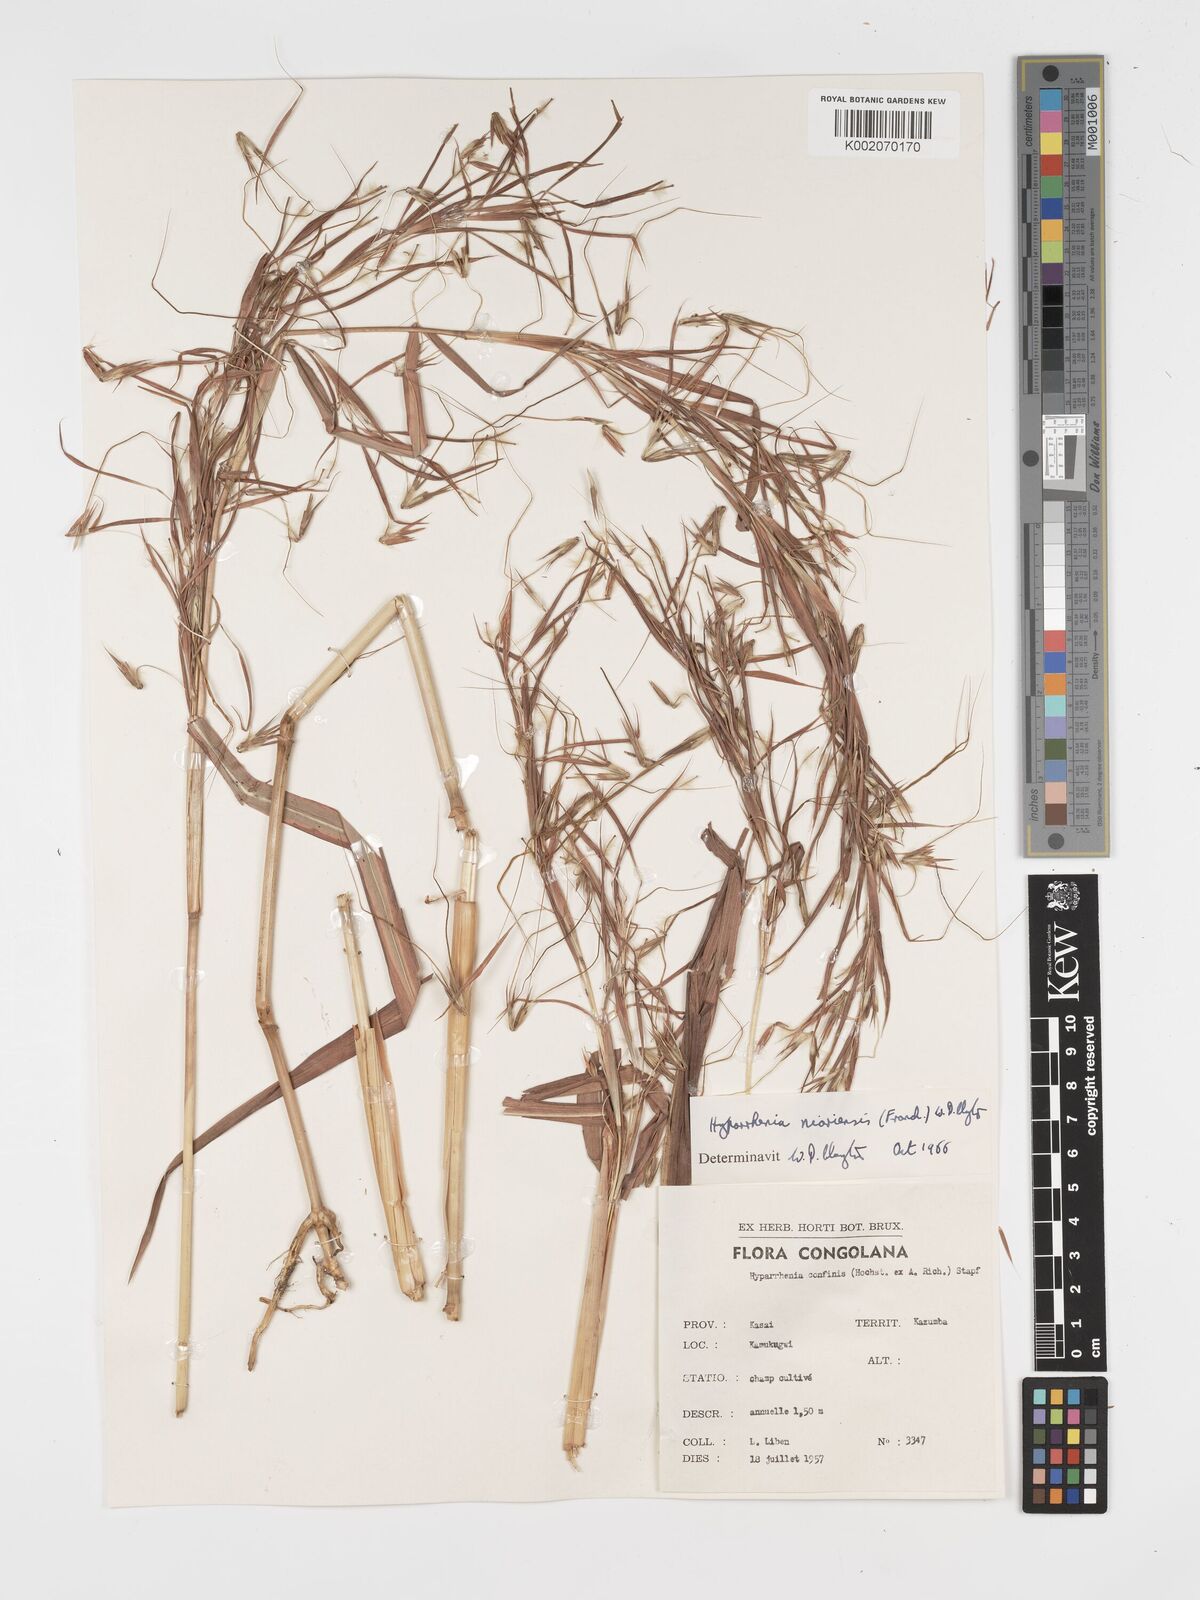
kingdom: Plantae
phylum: Tracheophyta
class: Liliopsida
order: Poales
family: Poaceae
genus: Hyparrhenia
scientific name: Hyparrhenia niariensis
